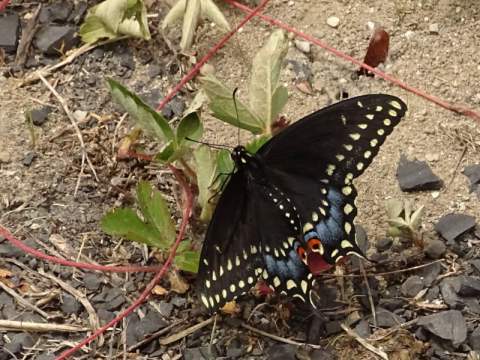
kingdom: Animalia
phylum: Arthropoda
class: Insecta
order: Lepidoptera
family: Papilionidae
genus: Papilio
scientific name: Papilio polyxenes
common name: Black Swallowtail
